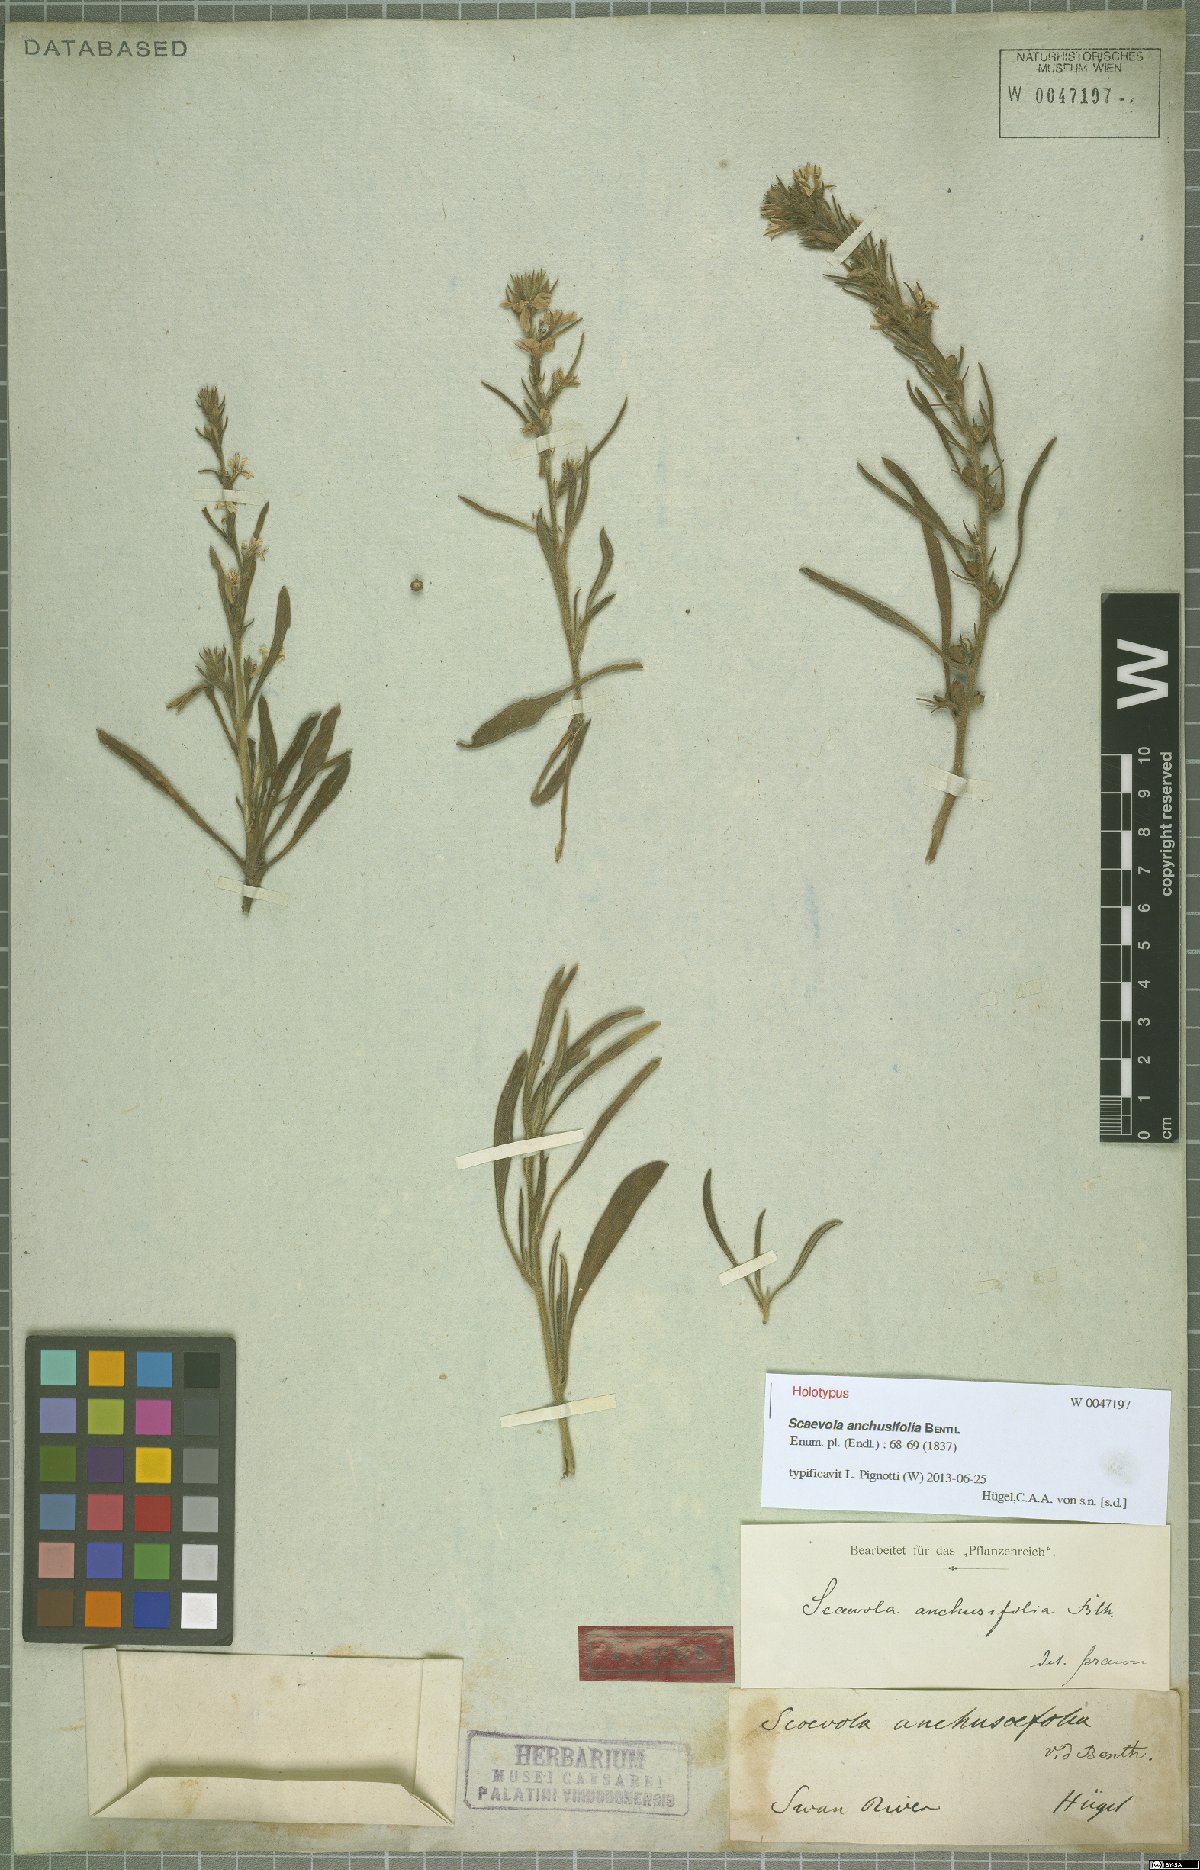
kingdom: Plantae
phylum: Tracheophyta
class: Magnoliopsida
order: Asterales
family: Goodeniaceae
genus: Scaevola
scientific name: Scaevola anchusifolia
